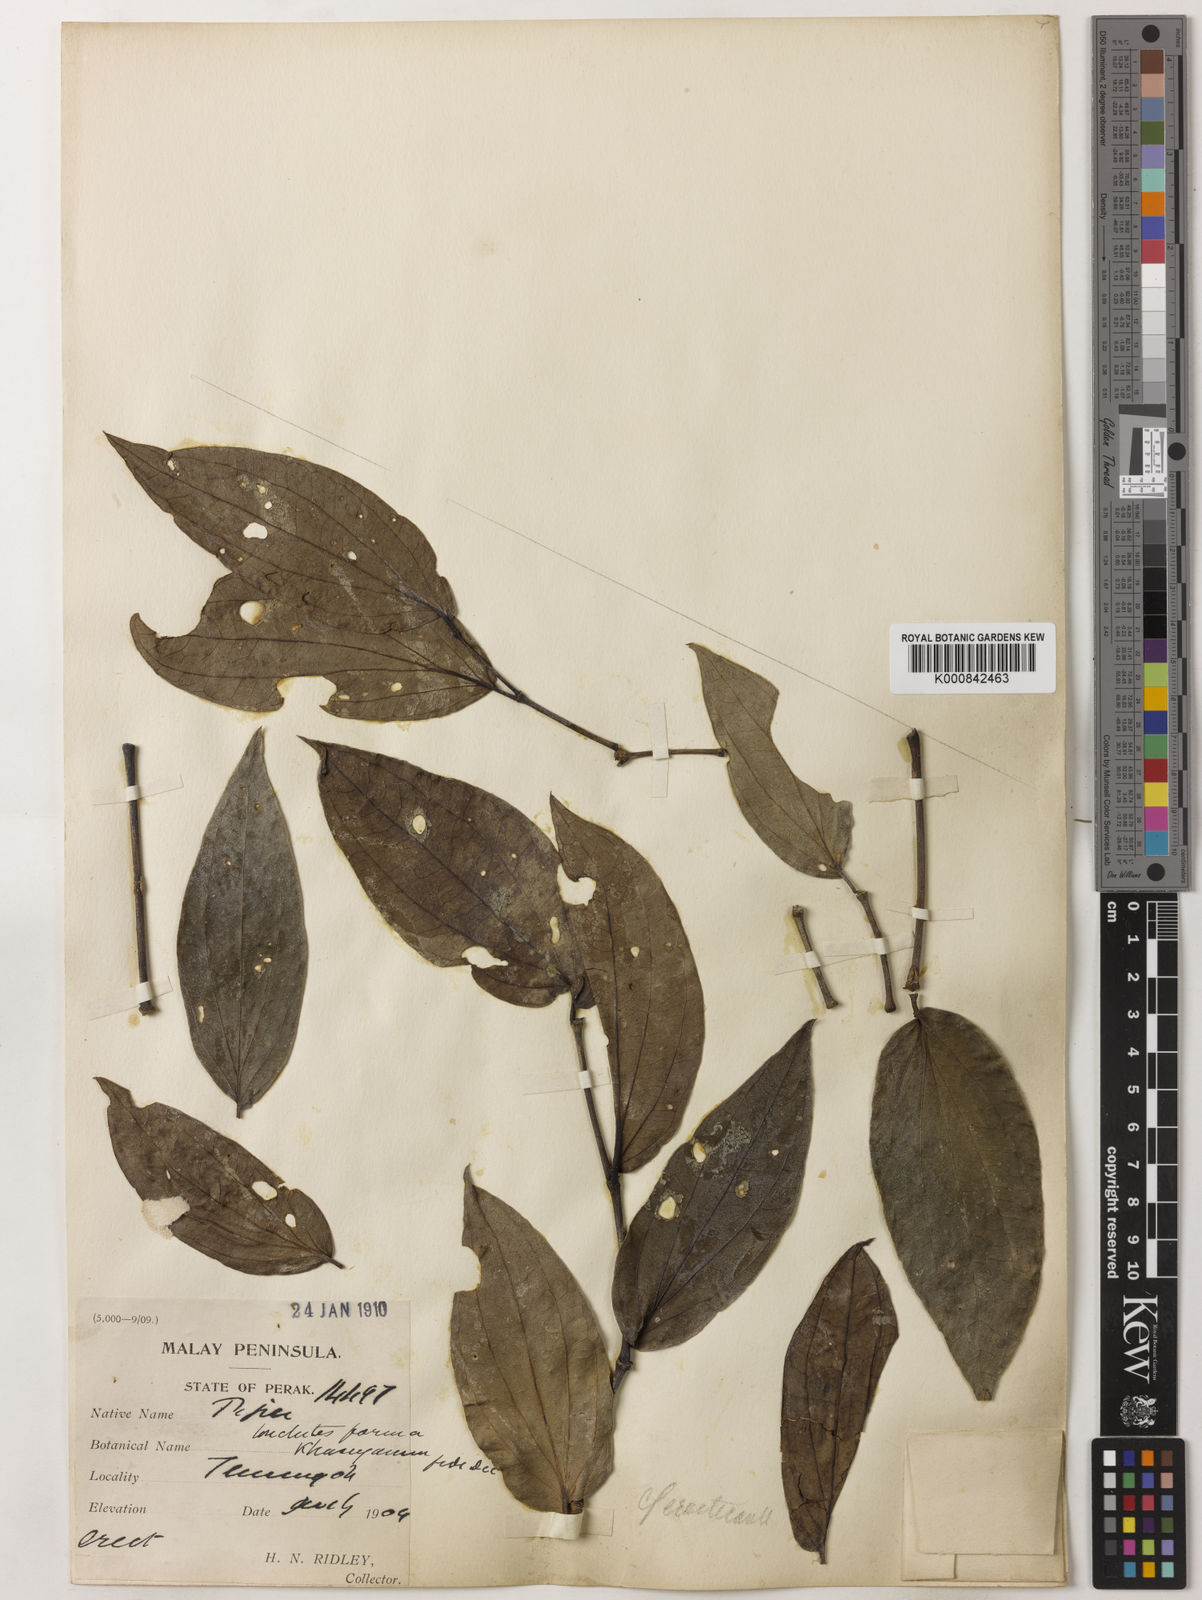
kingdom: Plantae
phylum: Tracheophyta
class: Magnoliopsida
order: Piperales
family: Piperaceae
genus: Piper
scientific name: Piper lonchites
